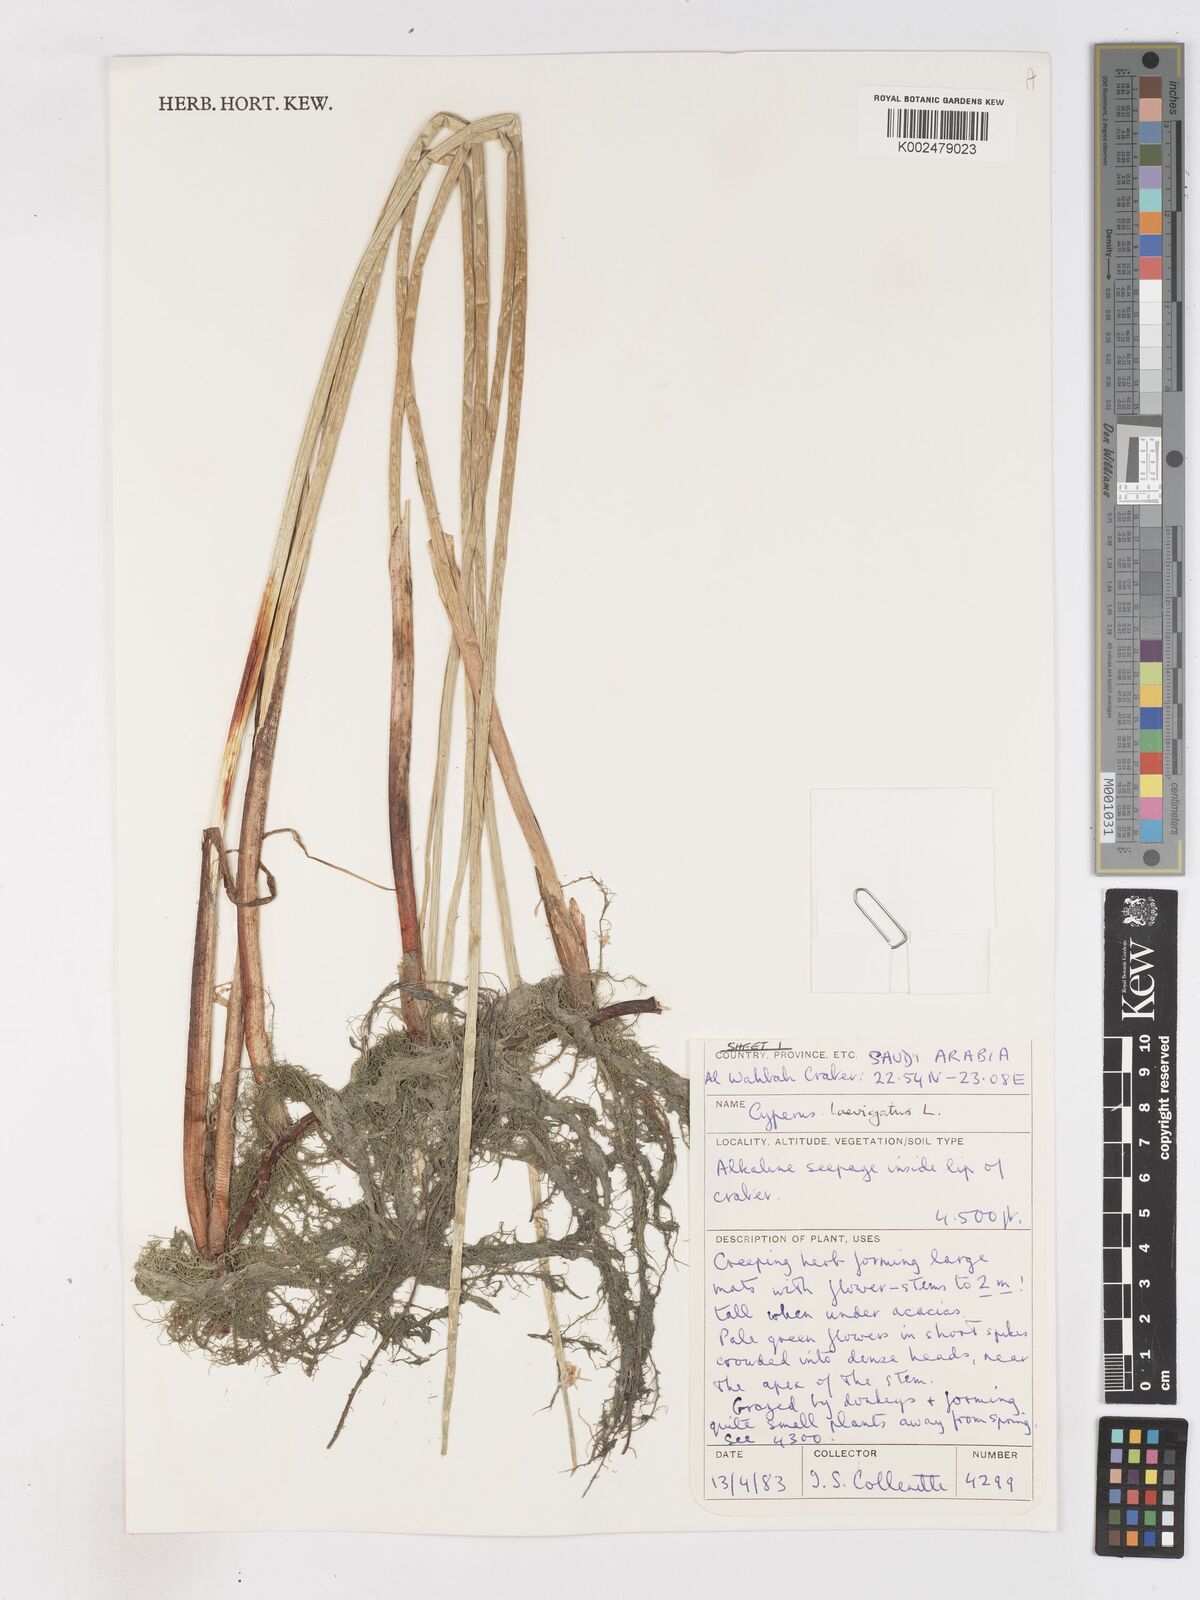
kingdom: Plantae
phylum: Tracheophyta
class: Liliopsida
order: Poales
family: Cyperaceae
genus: Cyperus
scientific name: Cyperus laevigatus
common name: Smooth flat sedge
